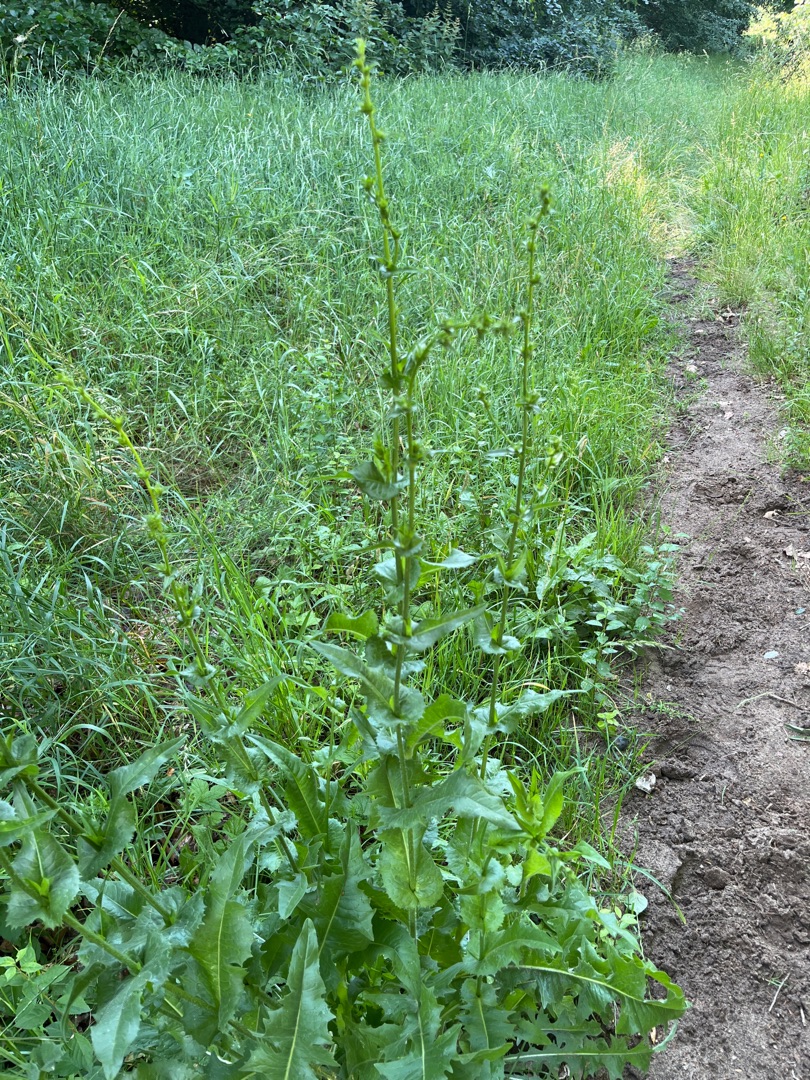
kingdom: Plantae
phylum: Tracheophyta
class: Magnoliopsida
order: Asterales
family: Asteraceae
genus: Cichorium
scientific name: Cichorium intybus
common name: Cikorie
